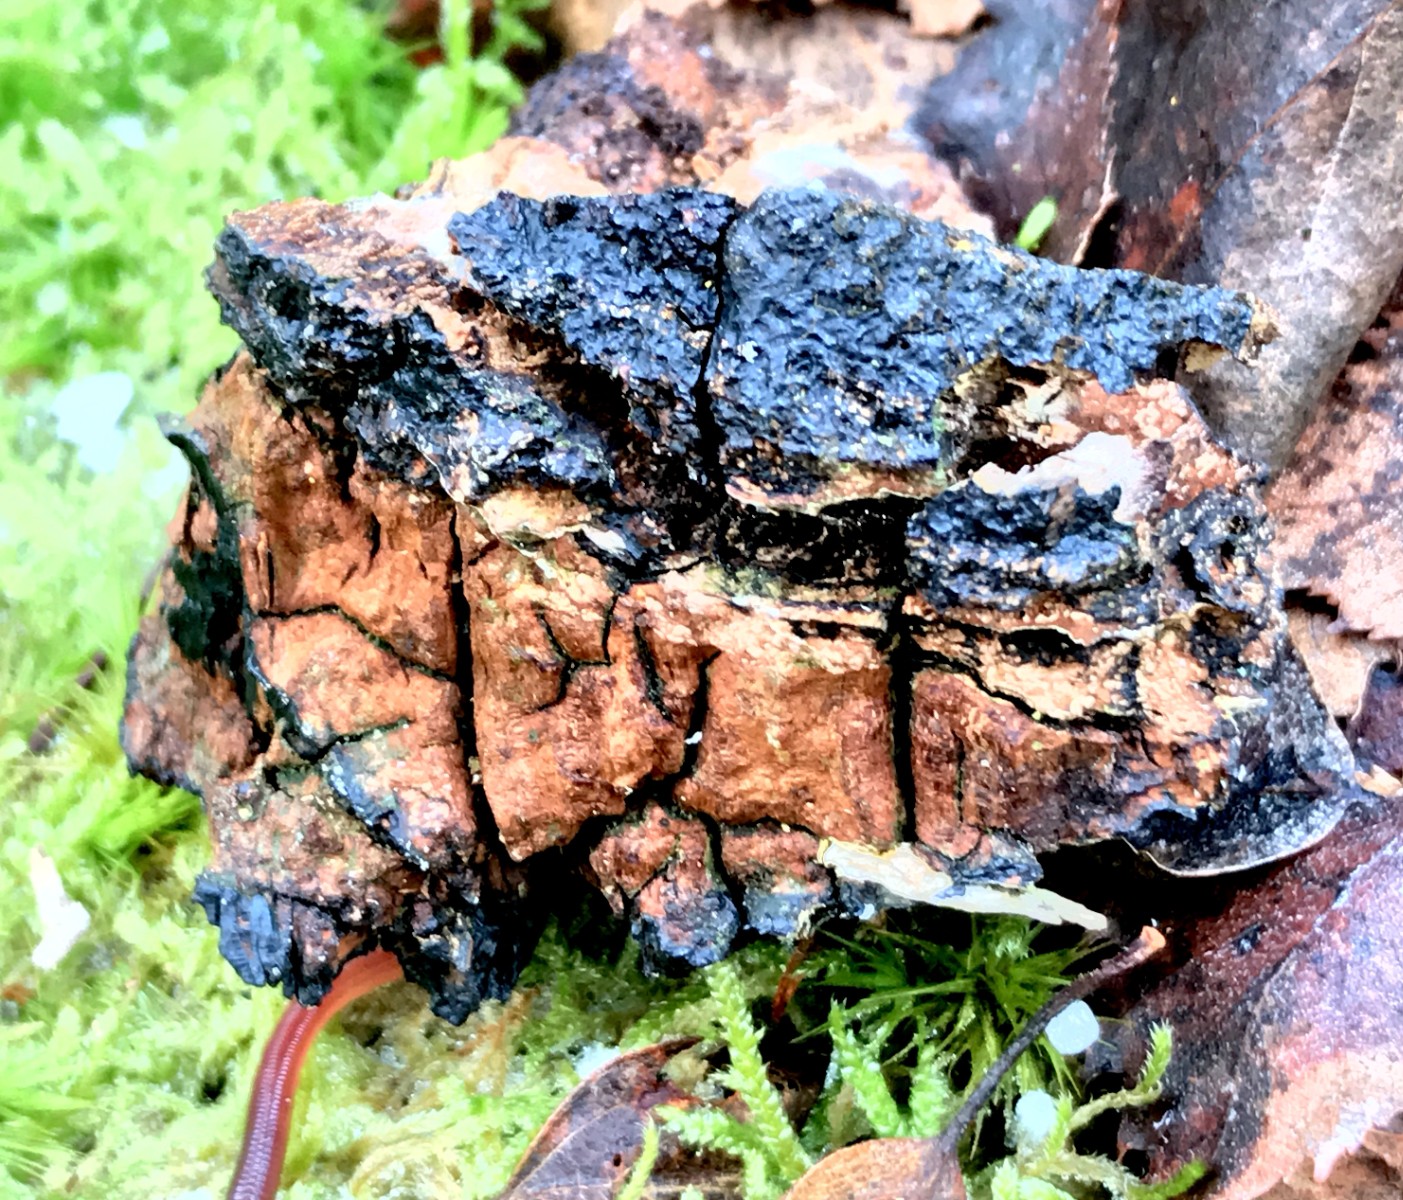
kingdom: Fungi
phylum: Basidiomycota
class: Agaricomycetes
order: Hymenochaetales
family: Hymenochaetaceae
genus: Inonotus
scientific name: Inonotus obliquus
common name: birke-spejlporesvamp
